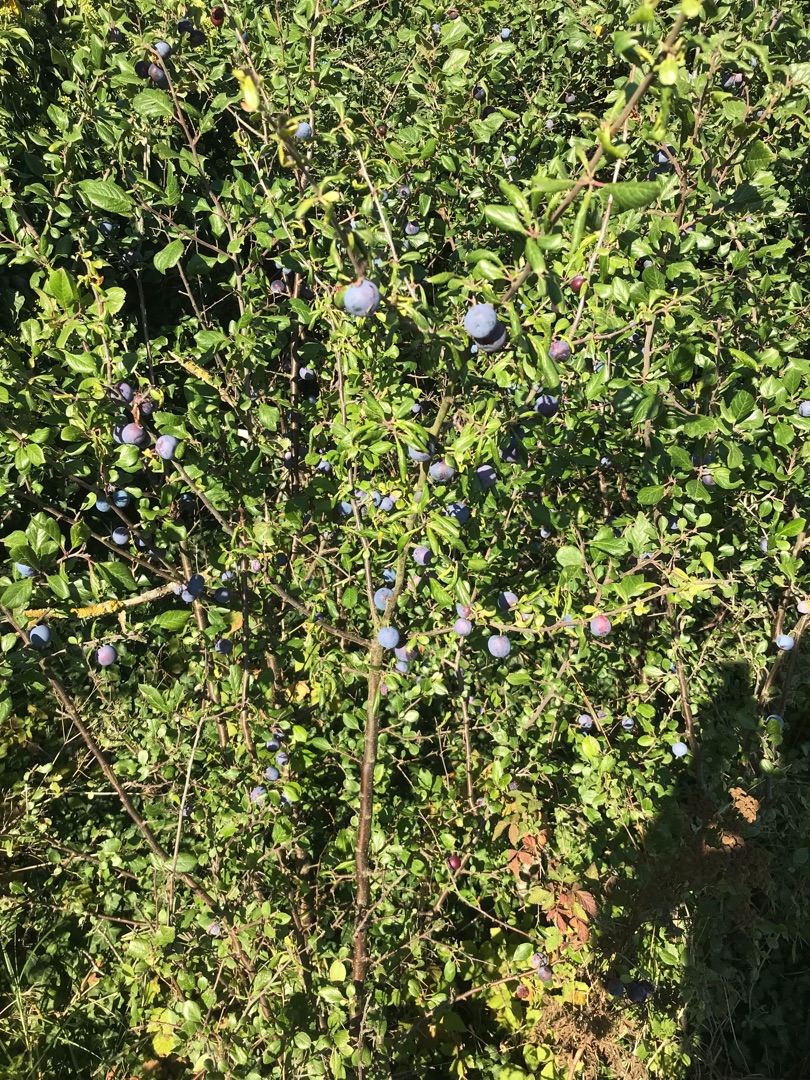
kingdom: Plantae
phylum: Tracheophyta
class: Magnoliopsida
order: Rosales
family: Rosaceae
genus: Prunus
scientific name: Prunus domestica
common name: Kræge
